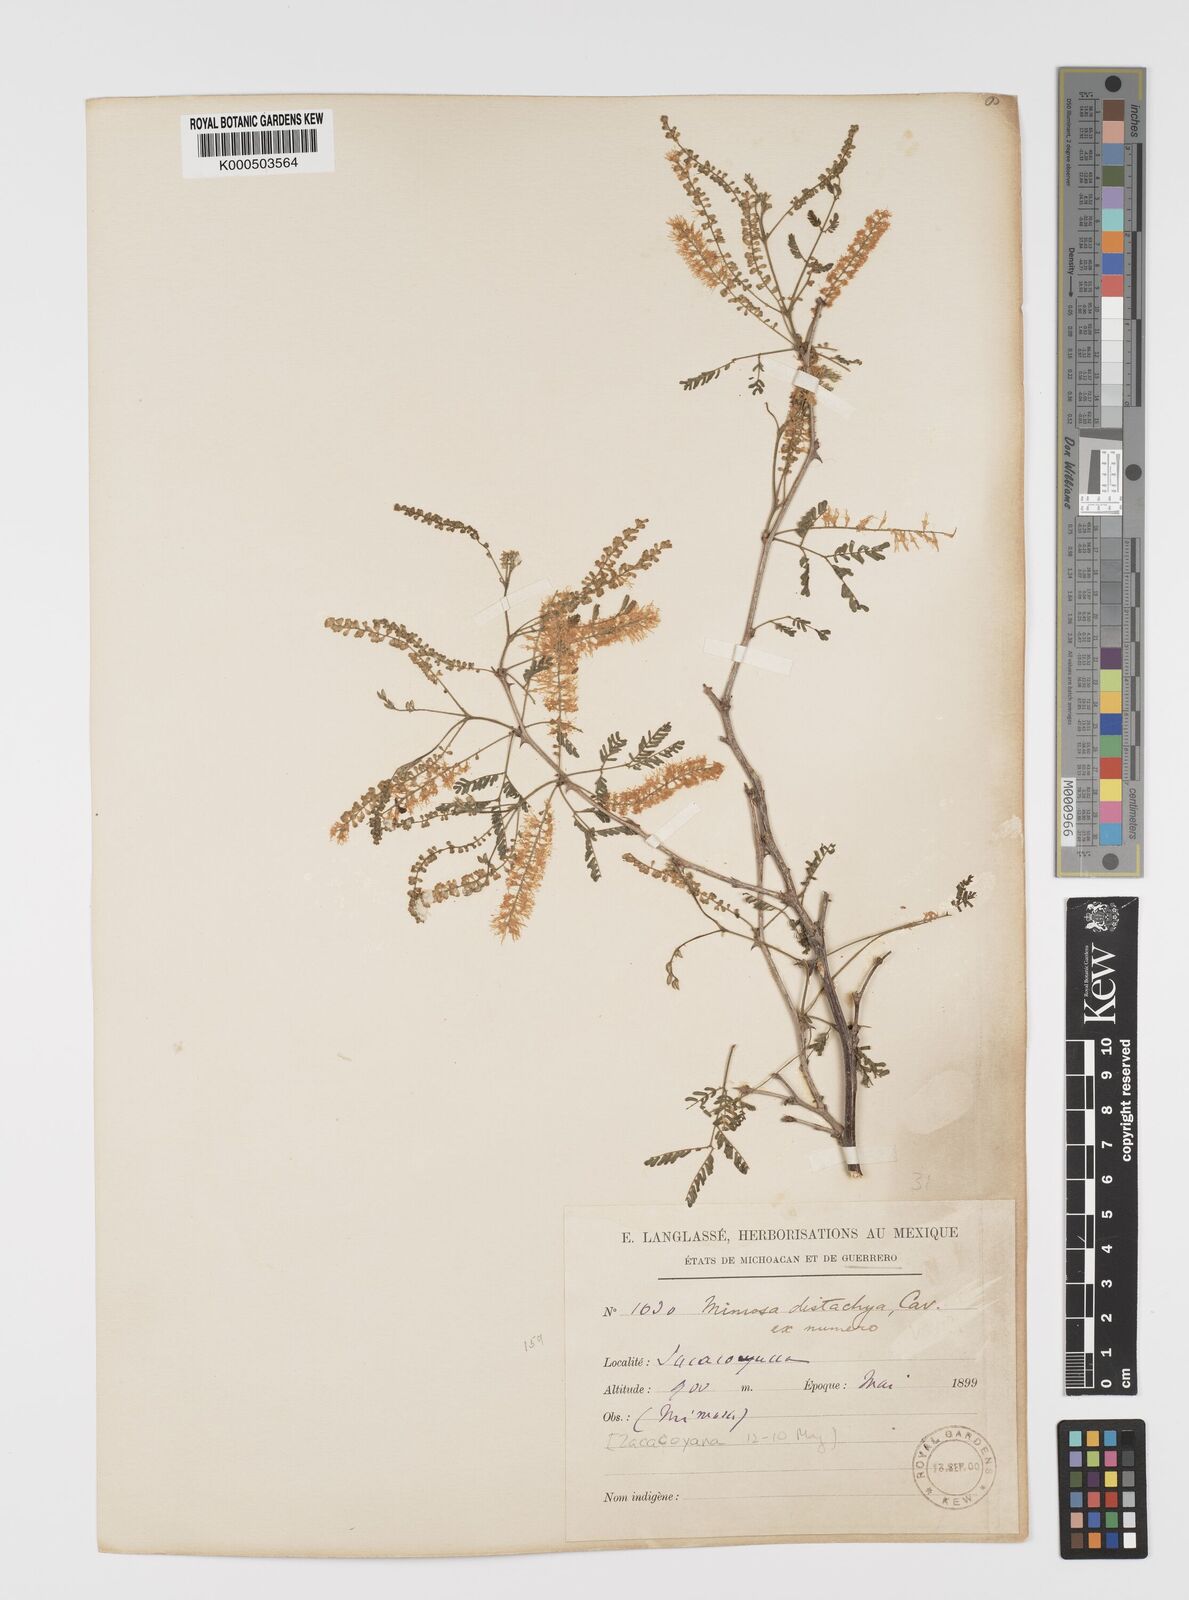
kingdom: Plantae
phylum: Tracheophyta
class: Magnoliopsida
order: Fabales
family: Fabaceae
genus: Mimosa
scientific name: Mimosa distachya
